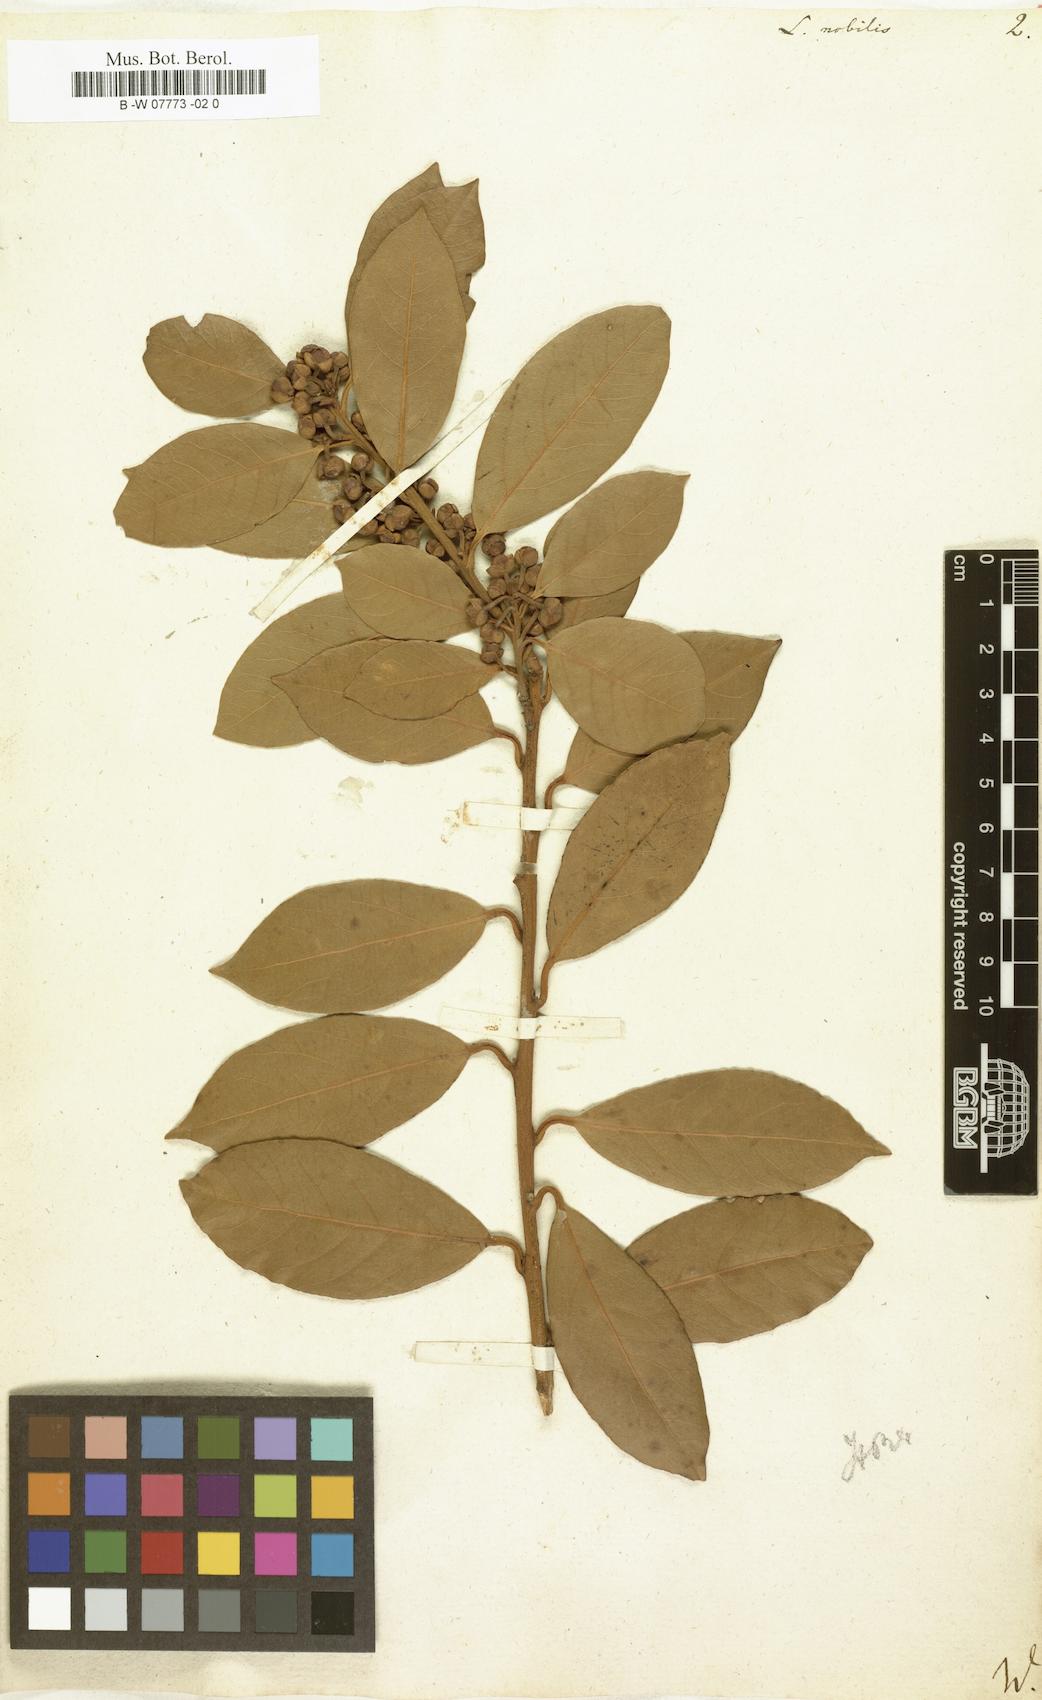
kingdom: Plantae
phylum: Tracheophyta
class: Magnoliopsida
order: Laurales
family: Lauraceae
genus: Laurus
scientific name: Laurus nobilis
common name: Bay
